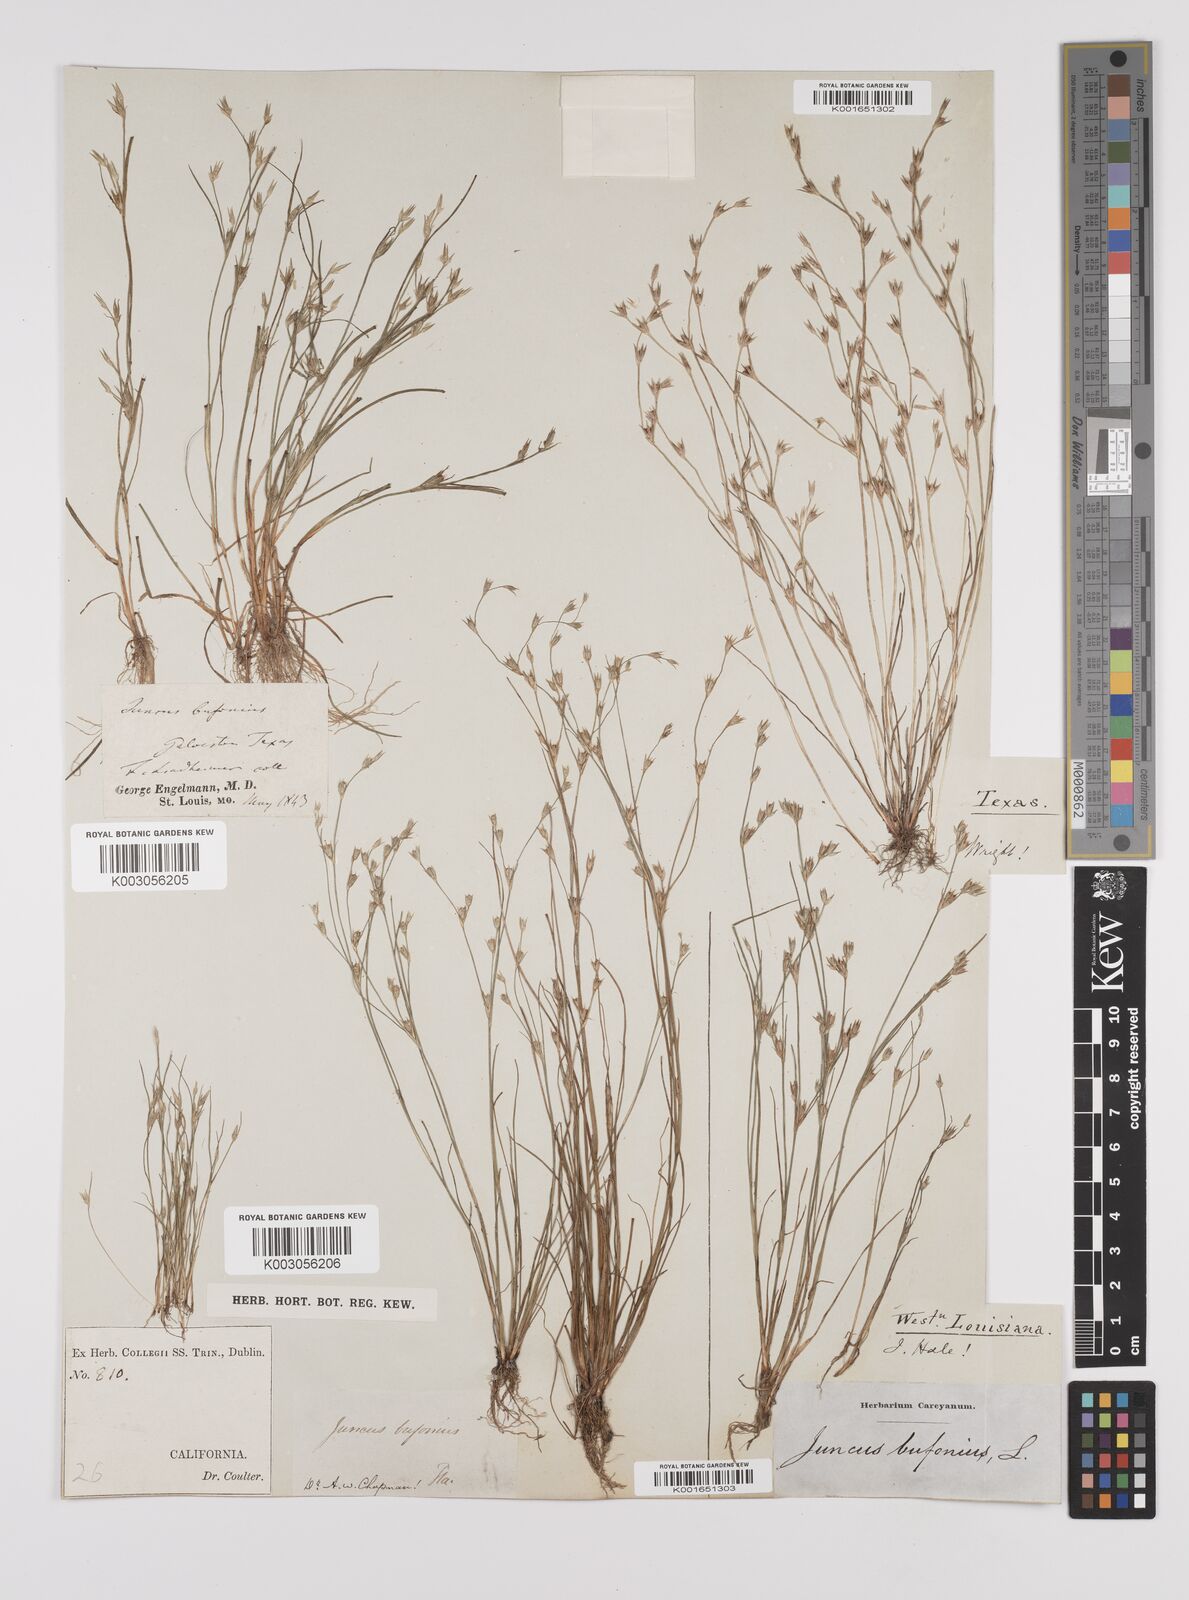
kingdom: Plantae
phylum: Tracheophyta
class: Liliopsida
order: Poales
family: Juncaceae
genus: Juncus
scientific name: Juncus bufonius
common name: Toad rush
